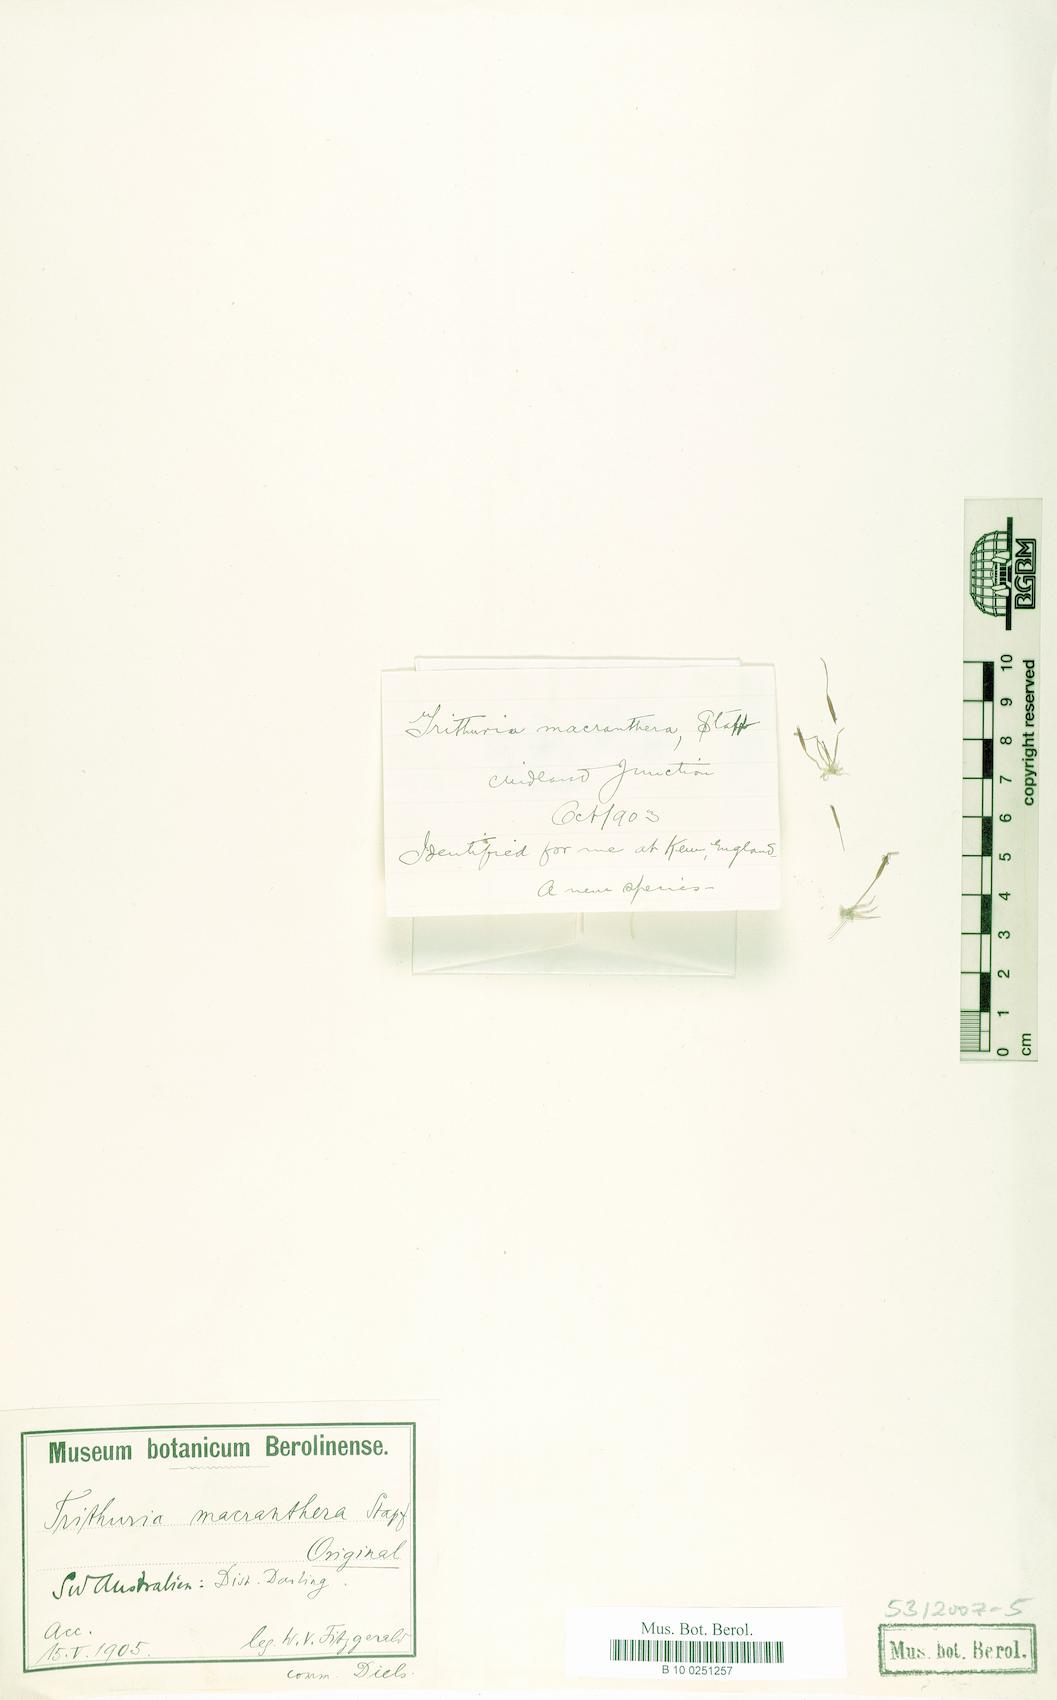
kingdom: Plantae
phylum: Tracheophyta
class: Magnoliopsida
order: Nymphaeales
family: Hydatellaceae
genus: Trithuria
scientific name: Trithuria occidentalis
